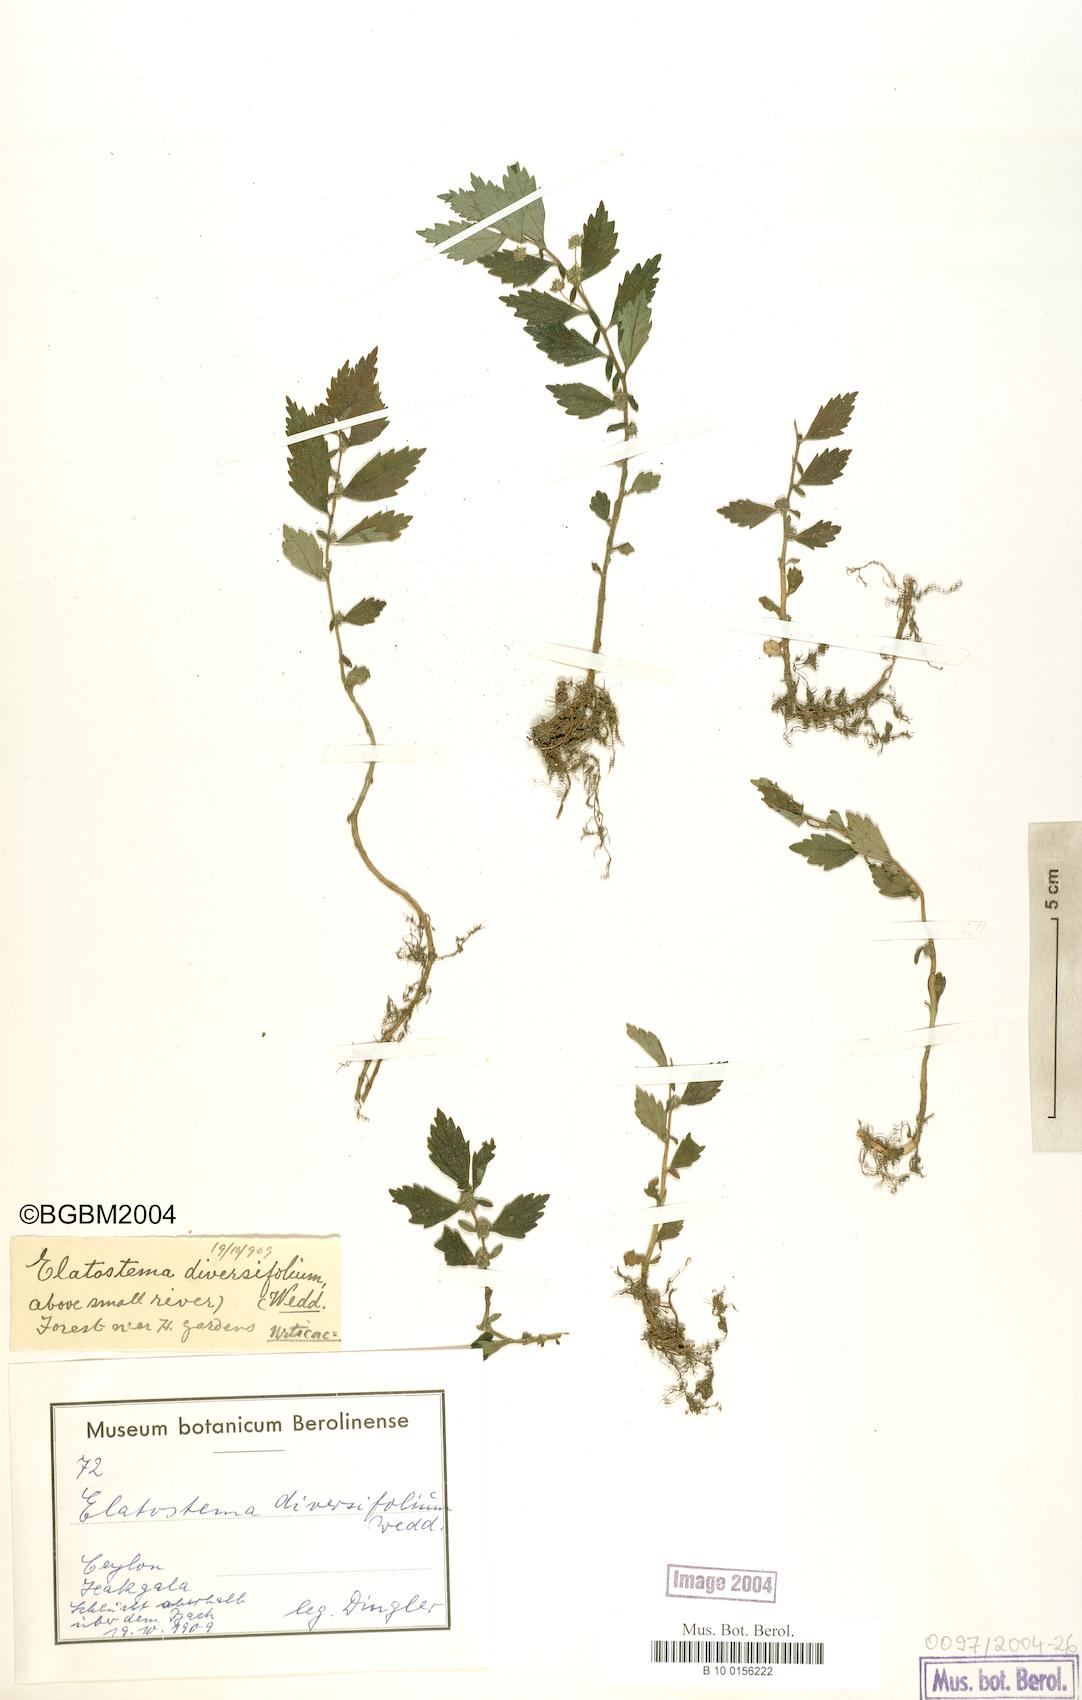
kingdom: Plantae
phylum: Tracheophyta
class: Magnoliopsida
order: Rosales
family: Urticaceae
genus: Elatostema
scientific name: Elatostema monandrum
